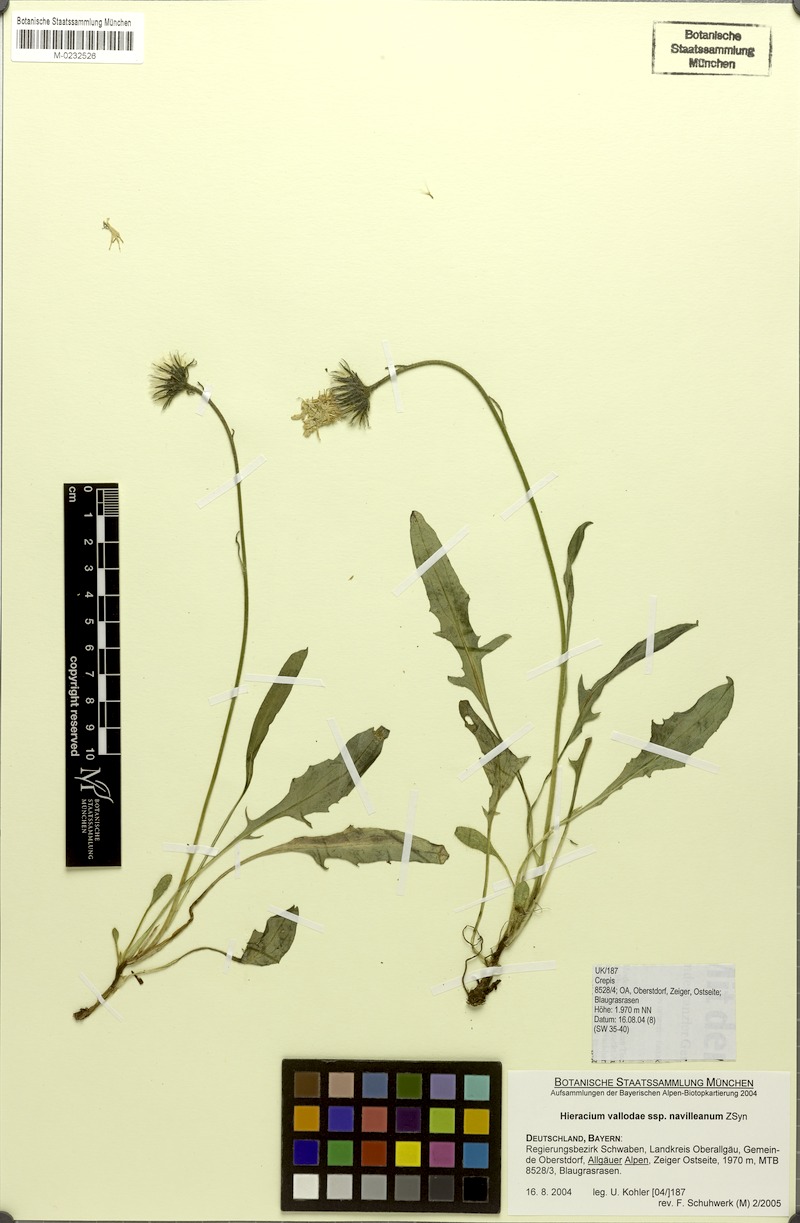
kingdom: Plantae
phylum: Tracheophyta
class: Magnoliopsida
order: Asterales
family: Asteraceae
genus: Hieracium
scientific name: Hieracium valoddae
